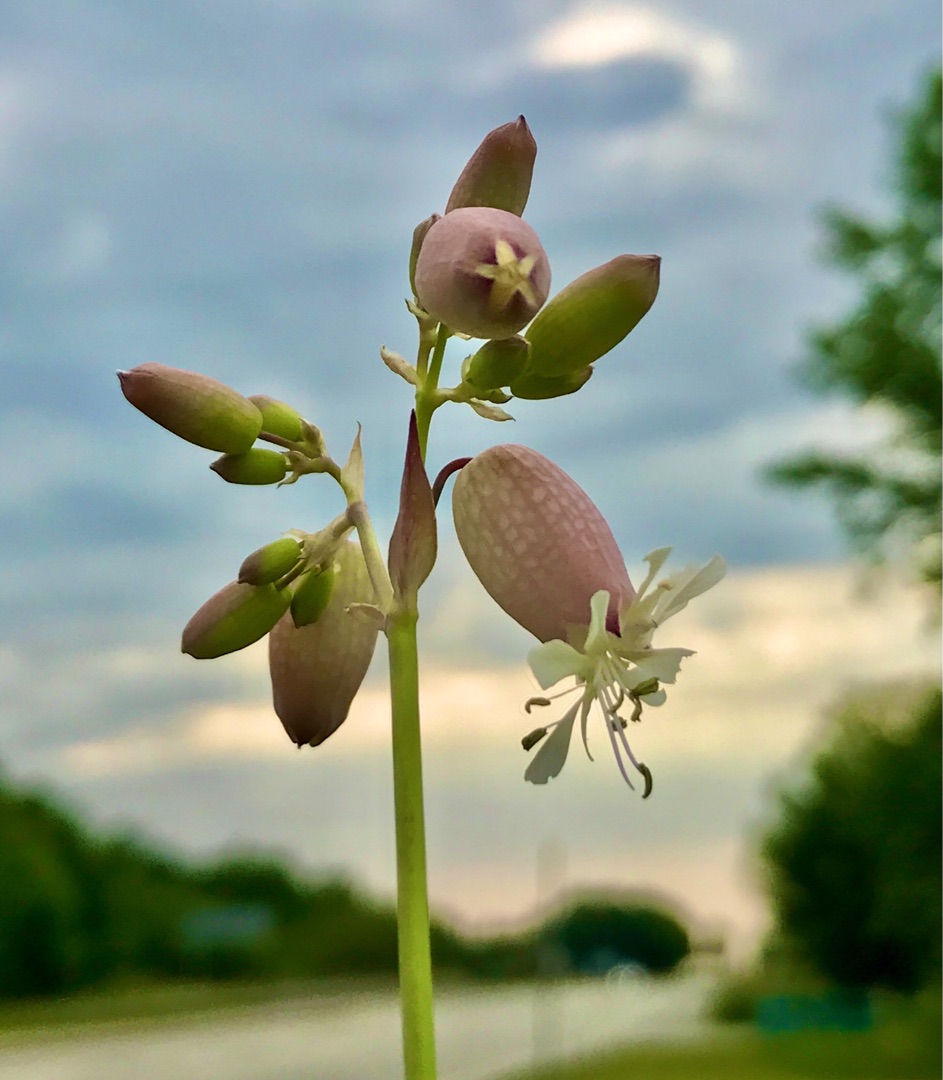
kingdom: Plantae
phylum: Tracheophyta
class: Magnoliopsida
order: Caryophyllales
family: Caryophyllaceae
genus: Silene
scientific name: Silene vulgaris
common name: Blæresmælde
